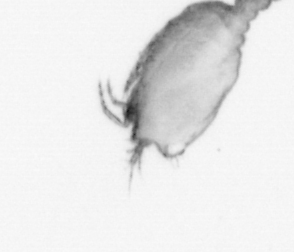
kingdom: Animalia
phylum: Arthropoda
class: Copepoda
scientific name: Copepoda
